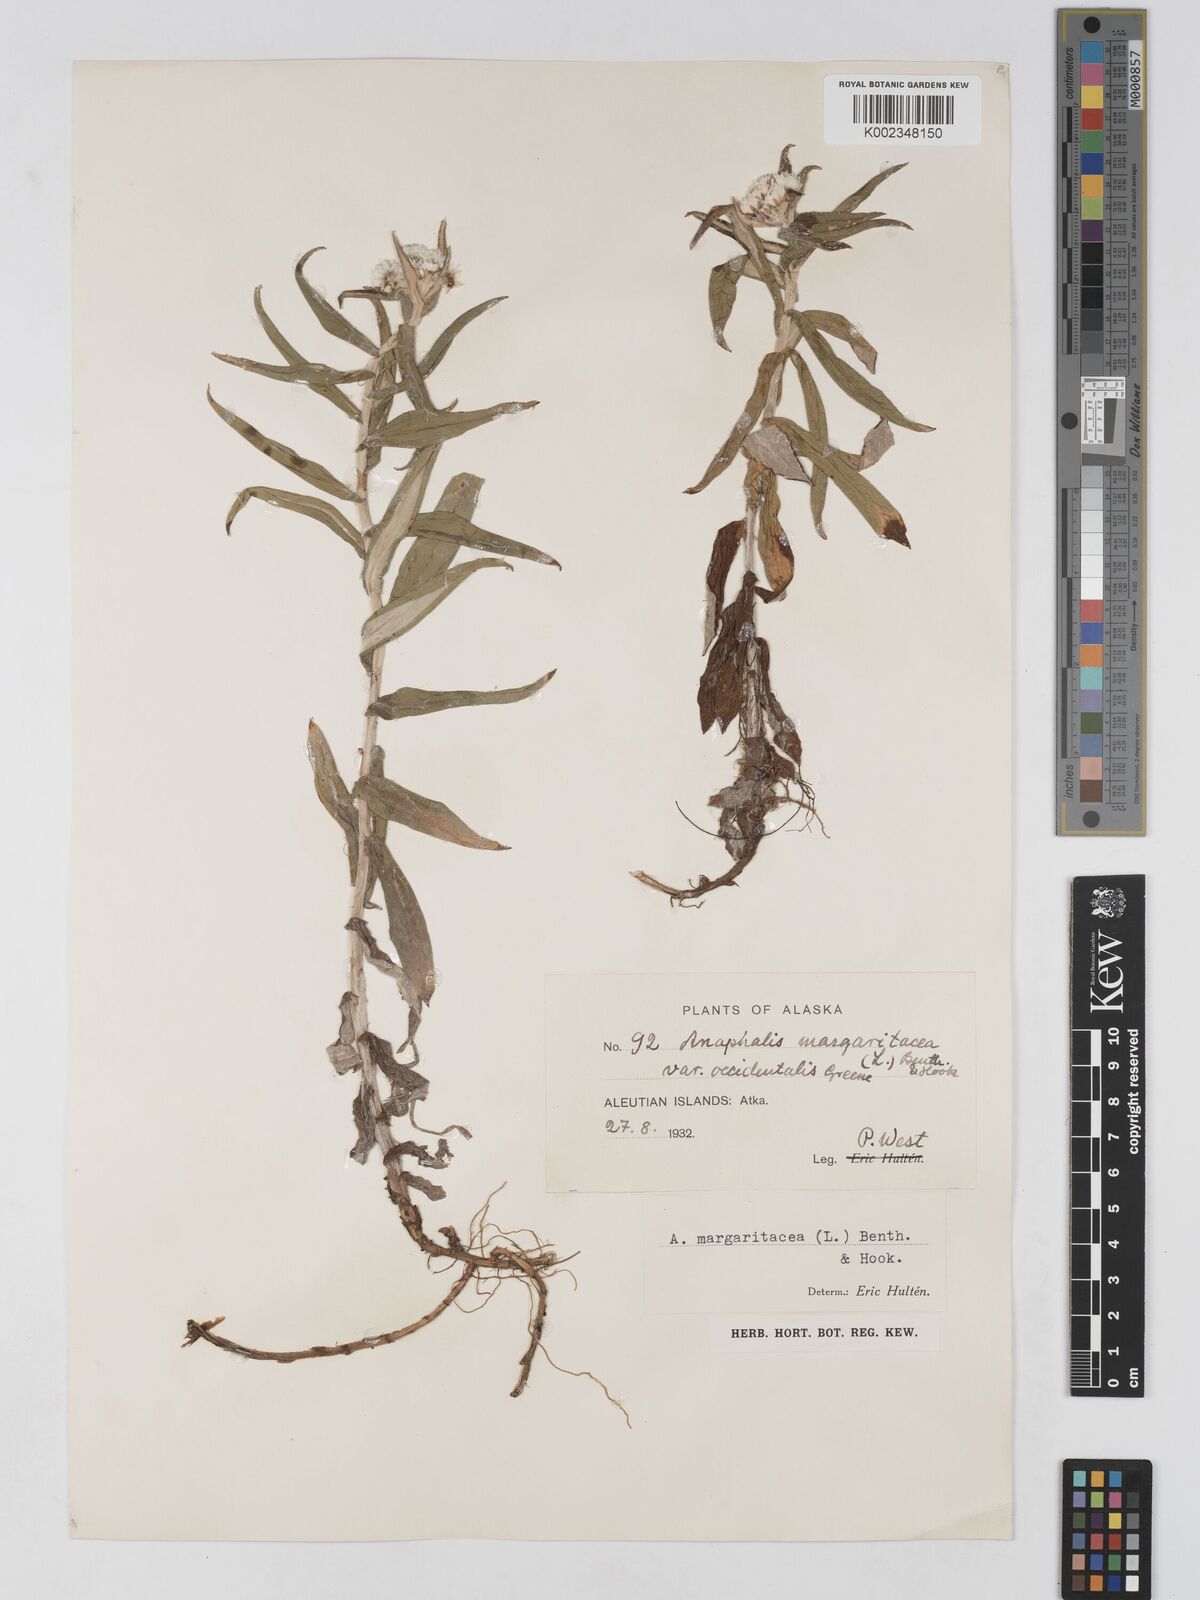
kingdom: Plantae
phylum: Tracheophyta
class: Magnoliopsida
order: Asterales
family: Asteraceae
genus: Anaphalis
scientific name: Anaphalis margaritacea
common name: Pearly everlasting
